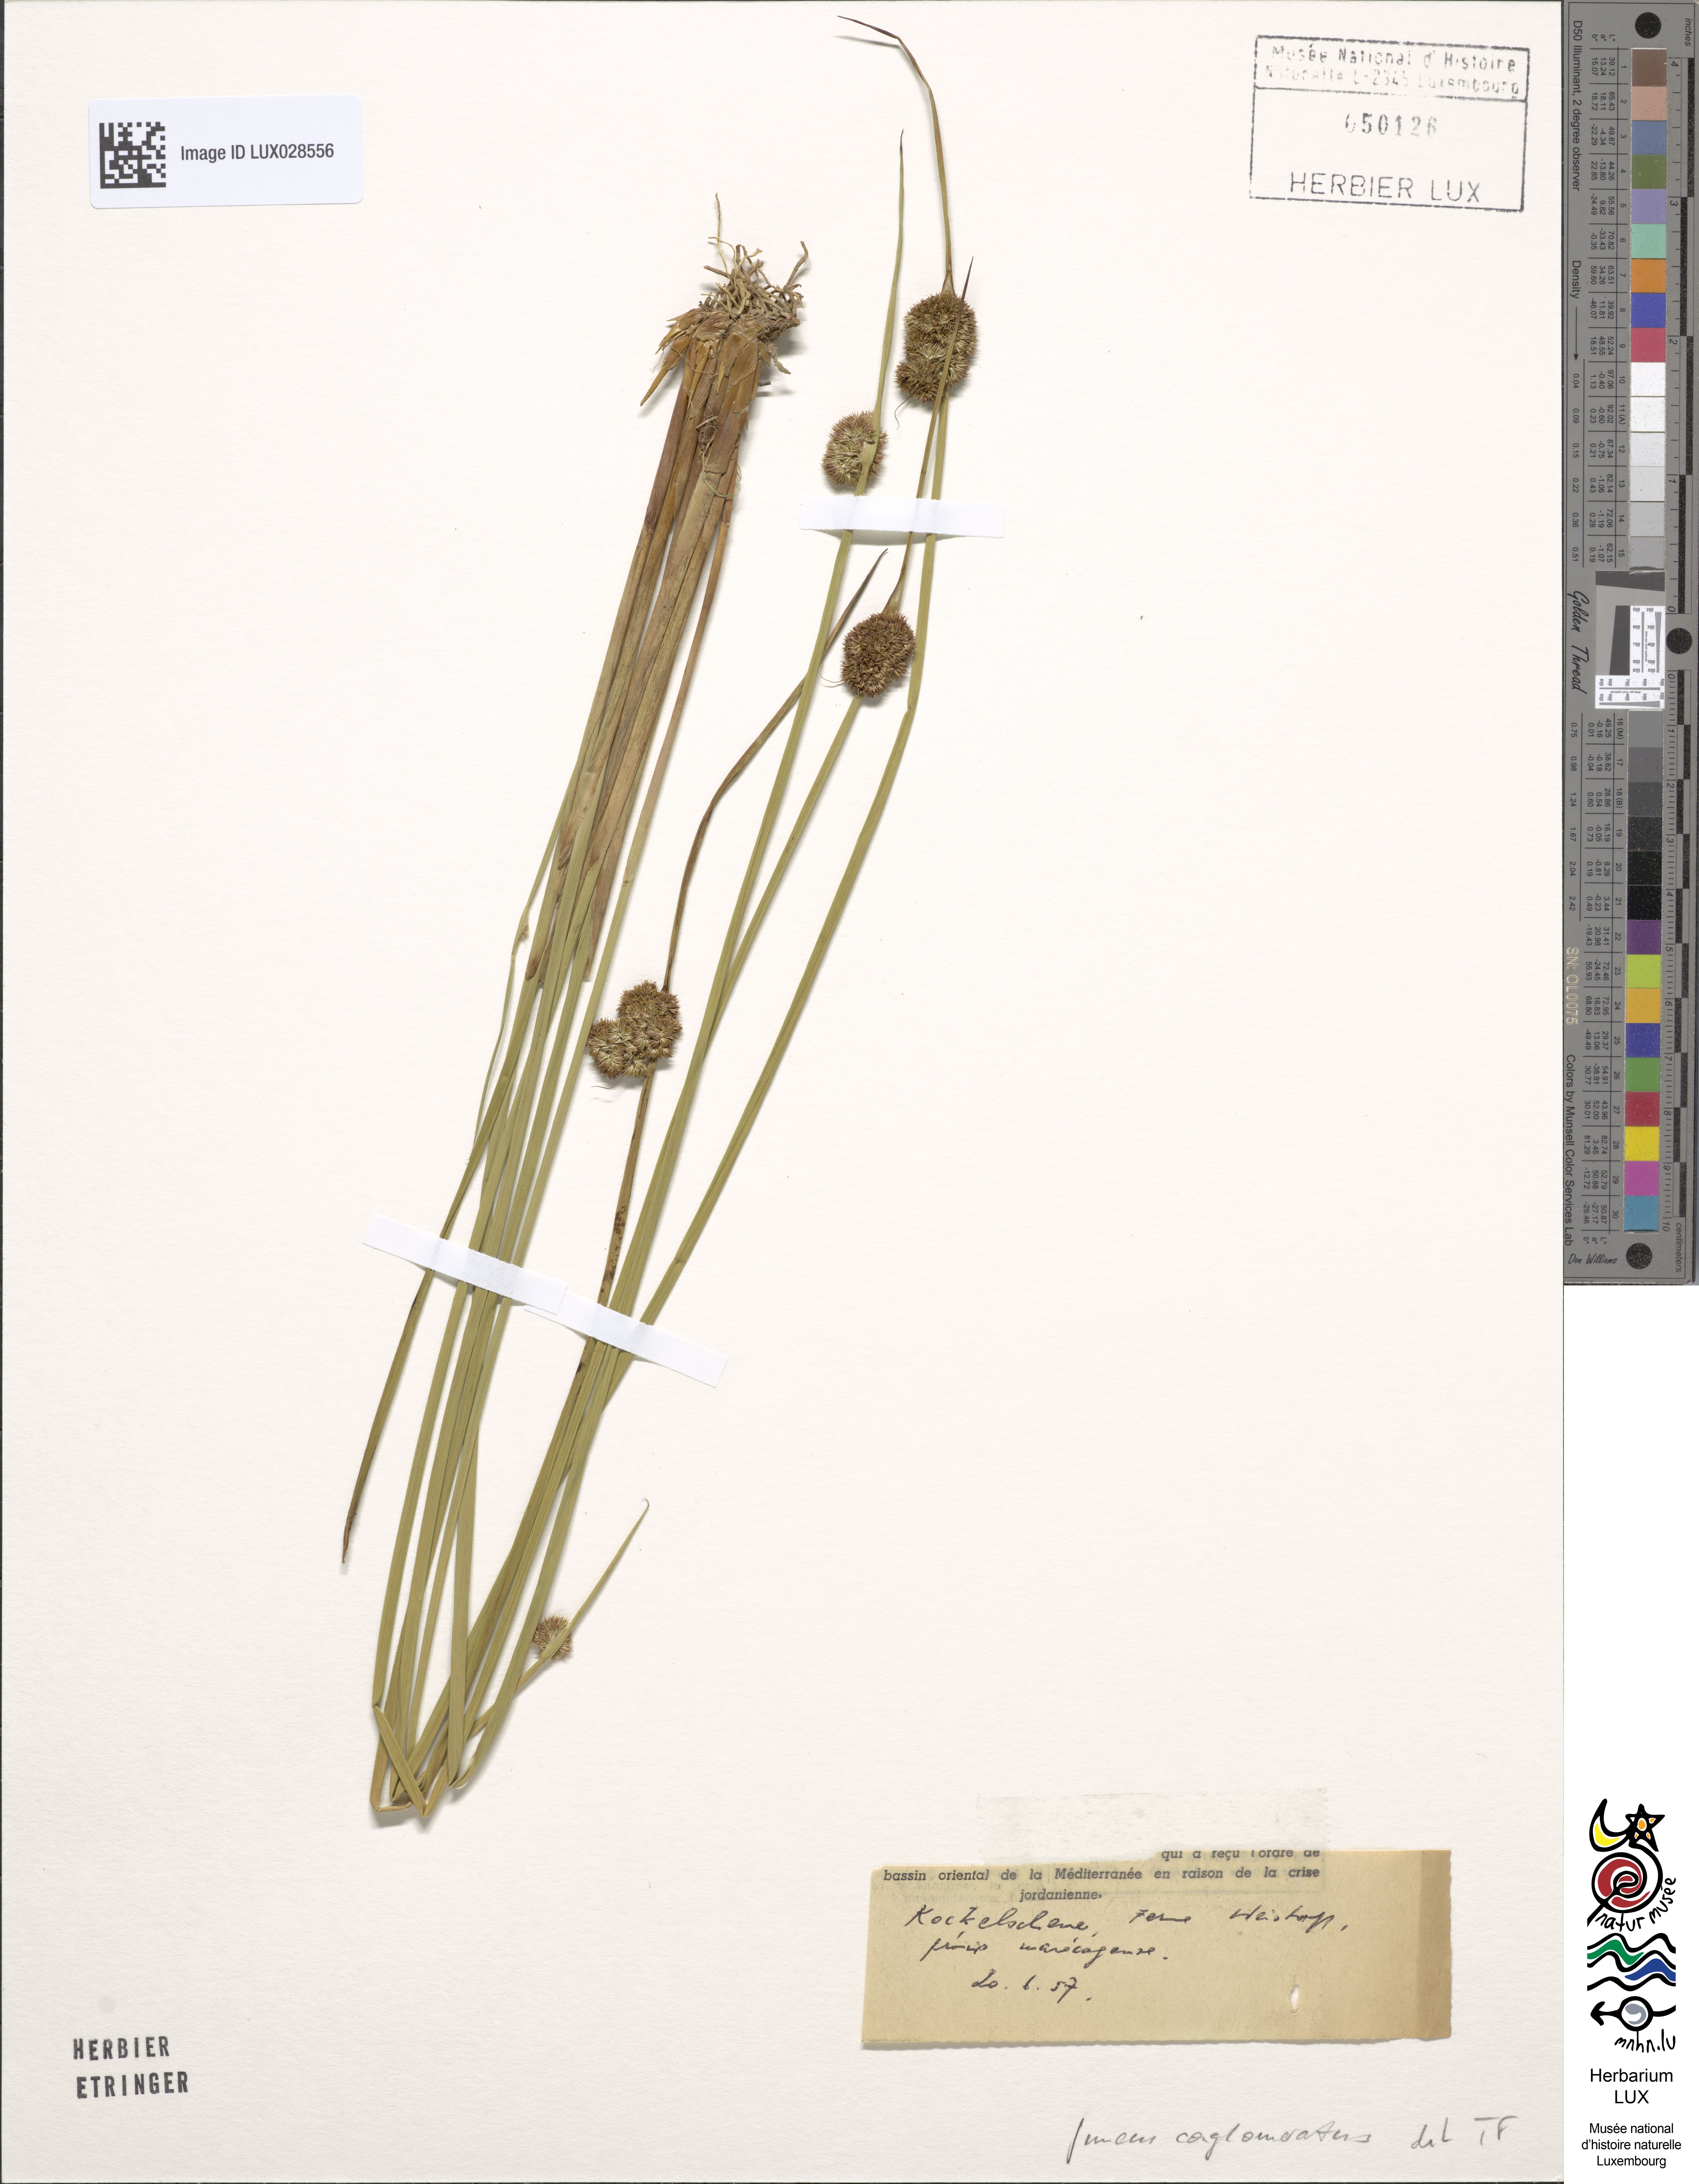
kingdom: Plantae
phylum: Tracheophyta
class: Liliopsida
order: Poales
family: Juncaceae
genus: Juncus
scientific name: Juncus conglomeratus
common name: Compact rush
